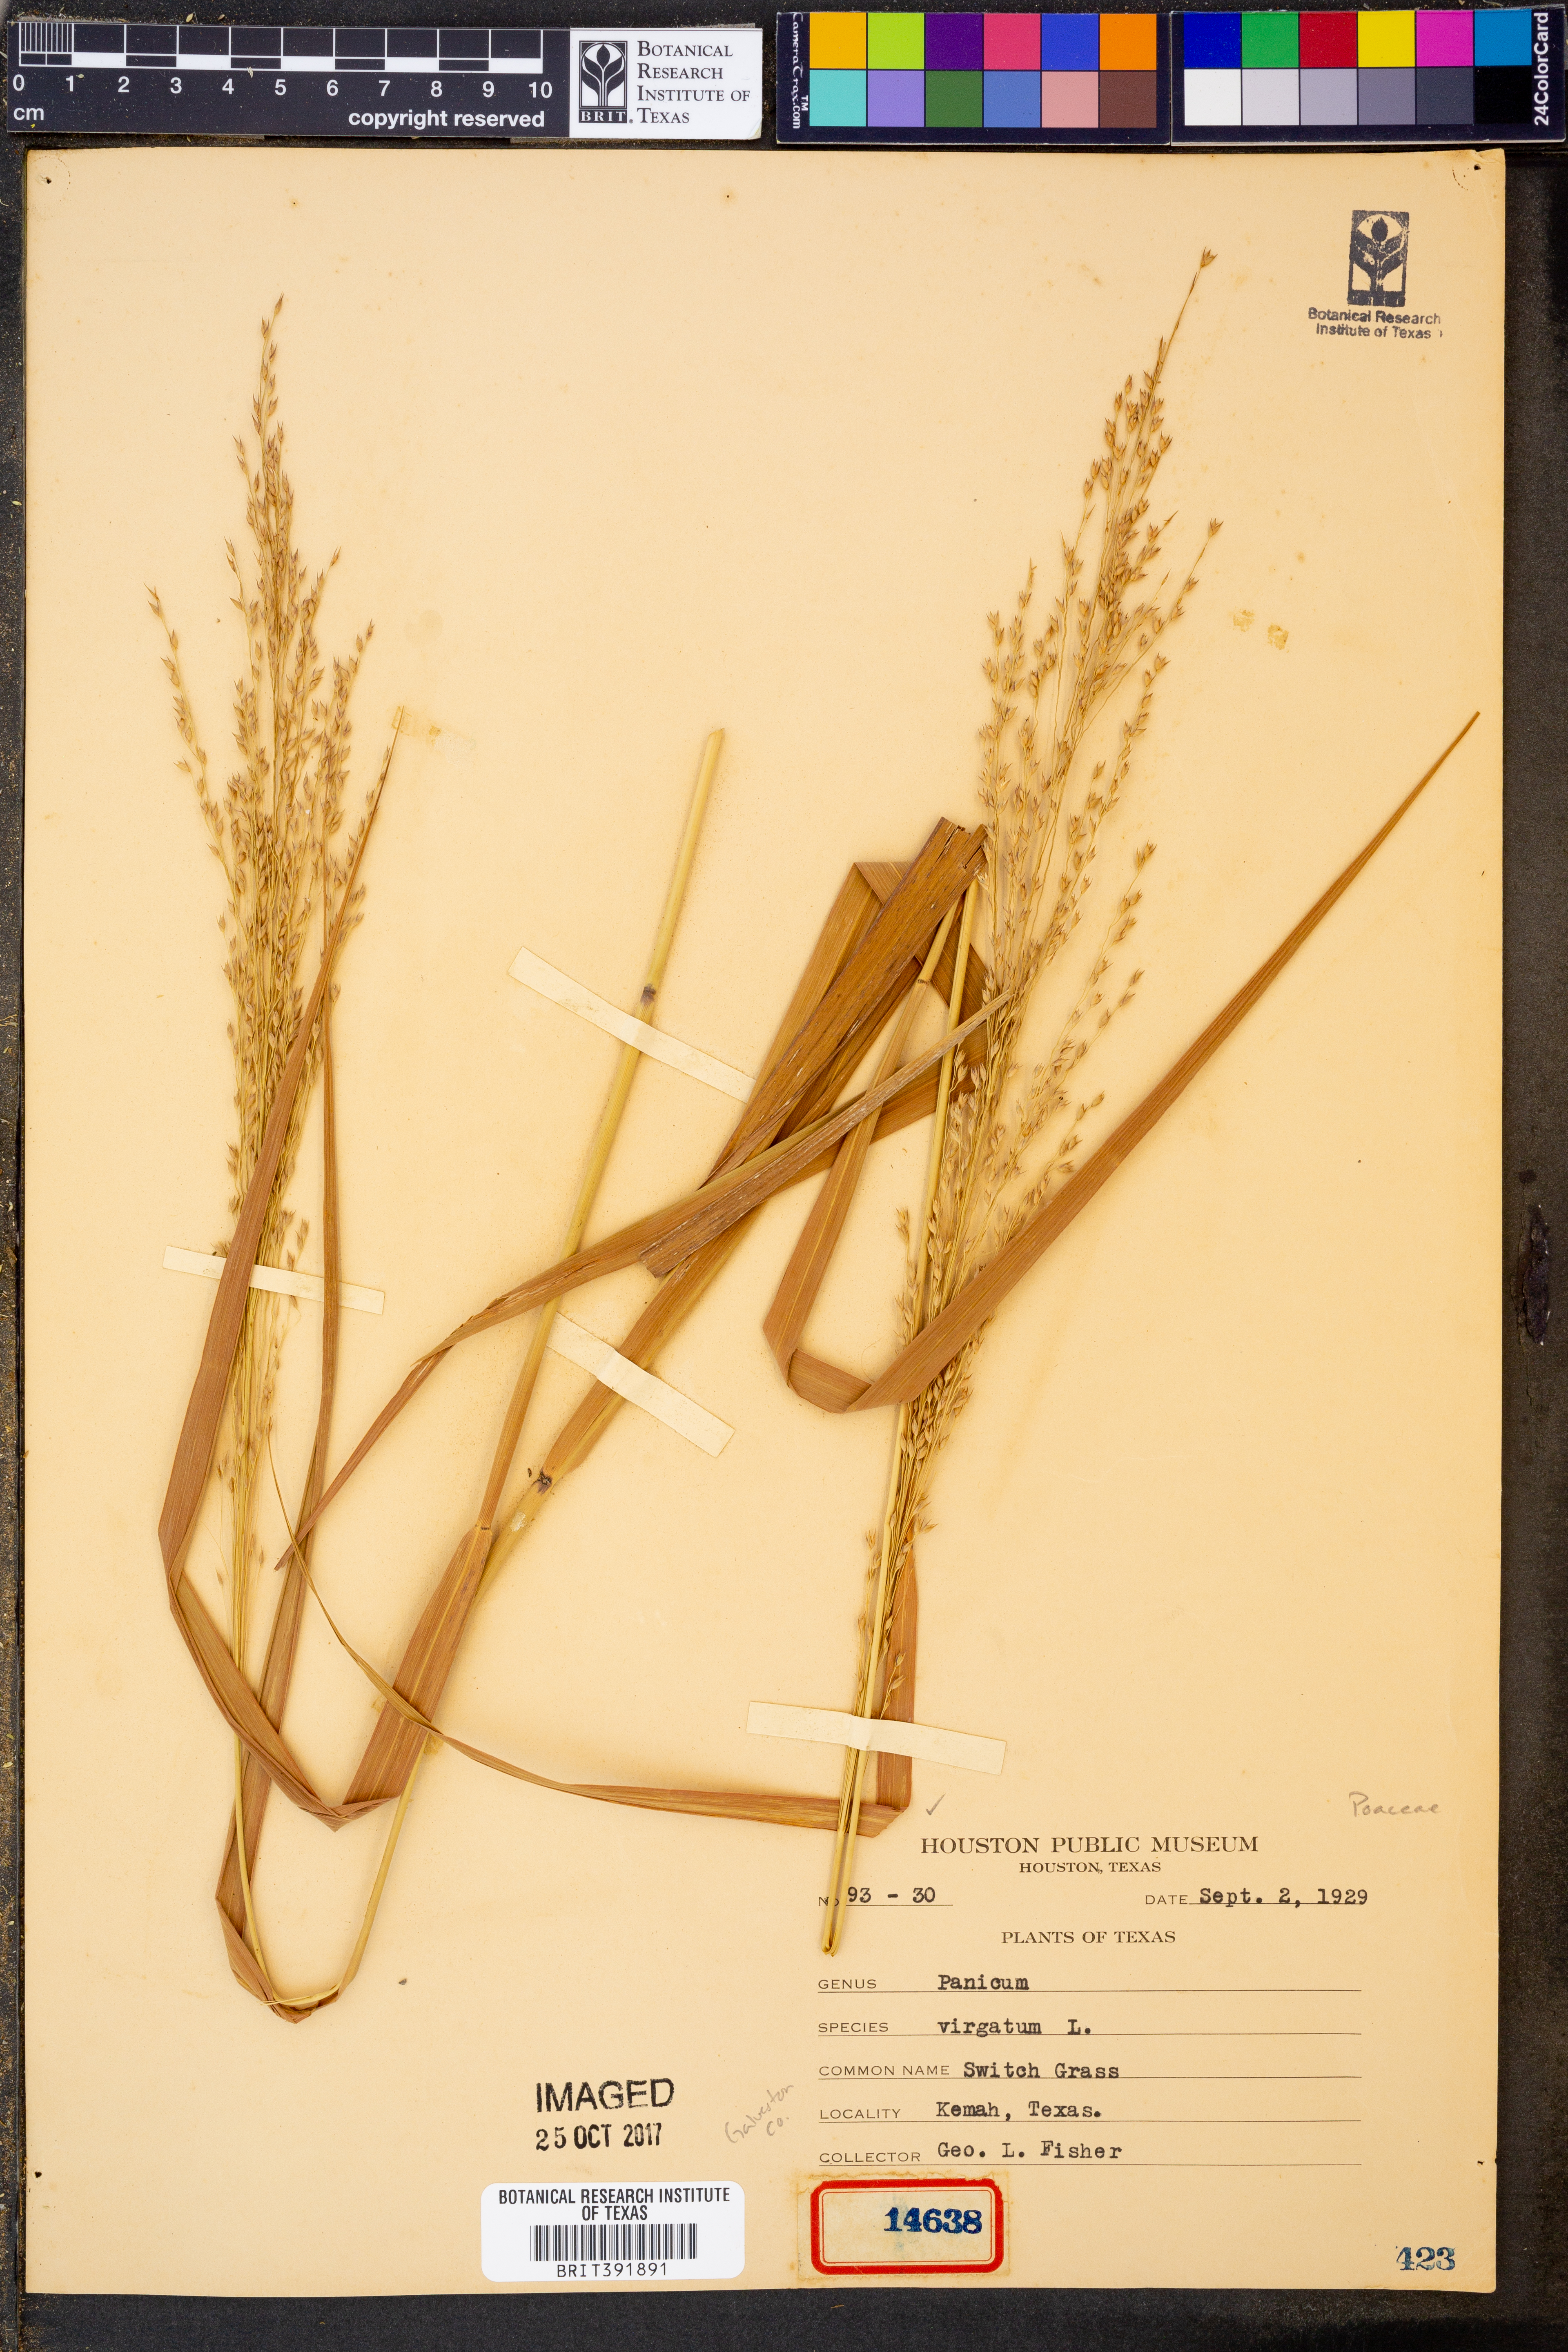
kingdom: Plantae
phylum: Tracheophyta
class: Liliopsida
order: Poales
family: Poaceae
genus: Panicum
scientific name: Panicum virgatum
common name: Switchgrass
